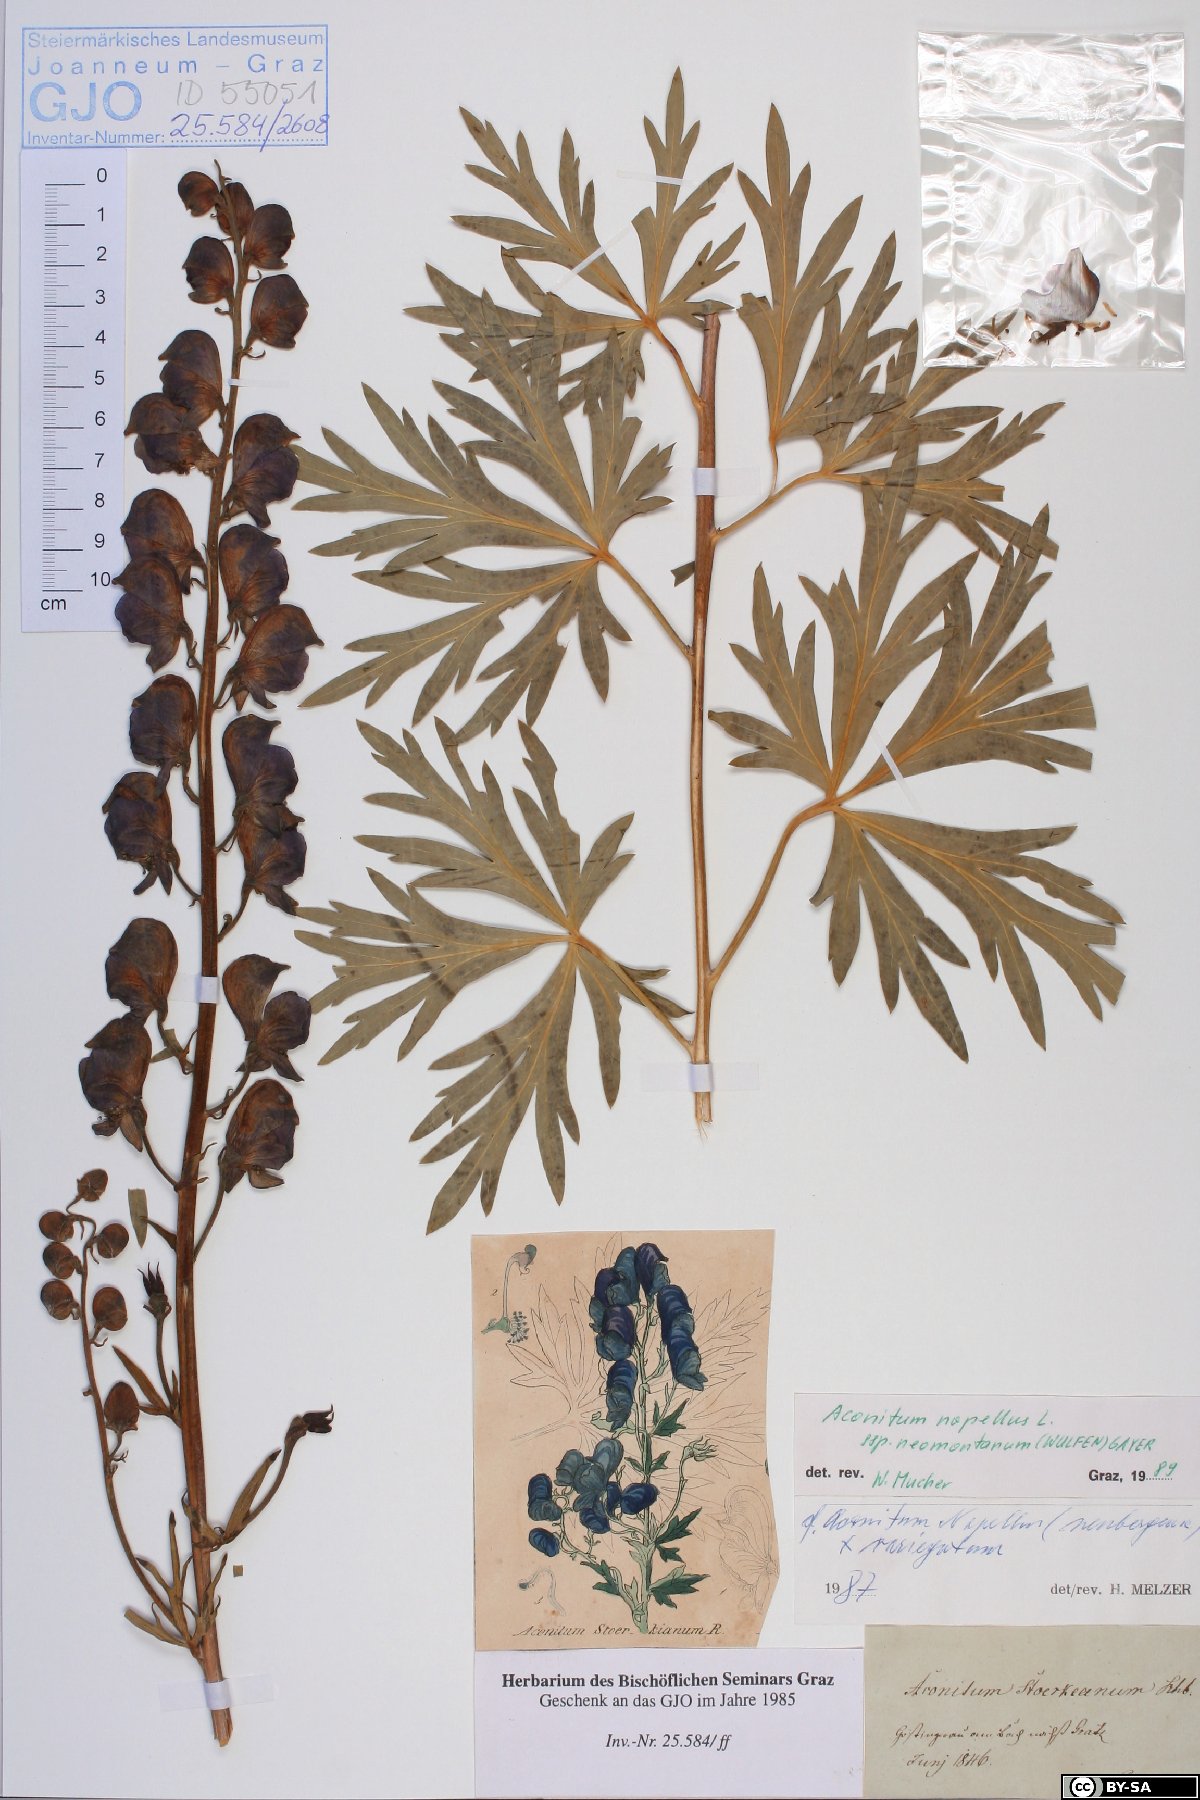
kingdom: Plantae
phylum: Tracheophyta
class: Magnoliopsida
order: Ranunculales
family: Ranunculaceae
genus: Aconitum
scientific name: Aconitum napellus
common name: Garden monkshood
